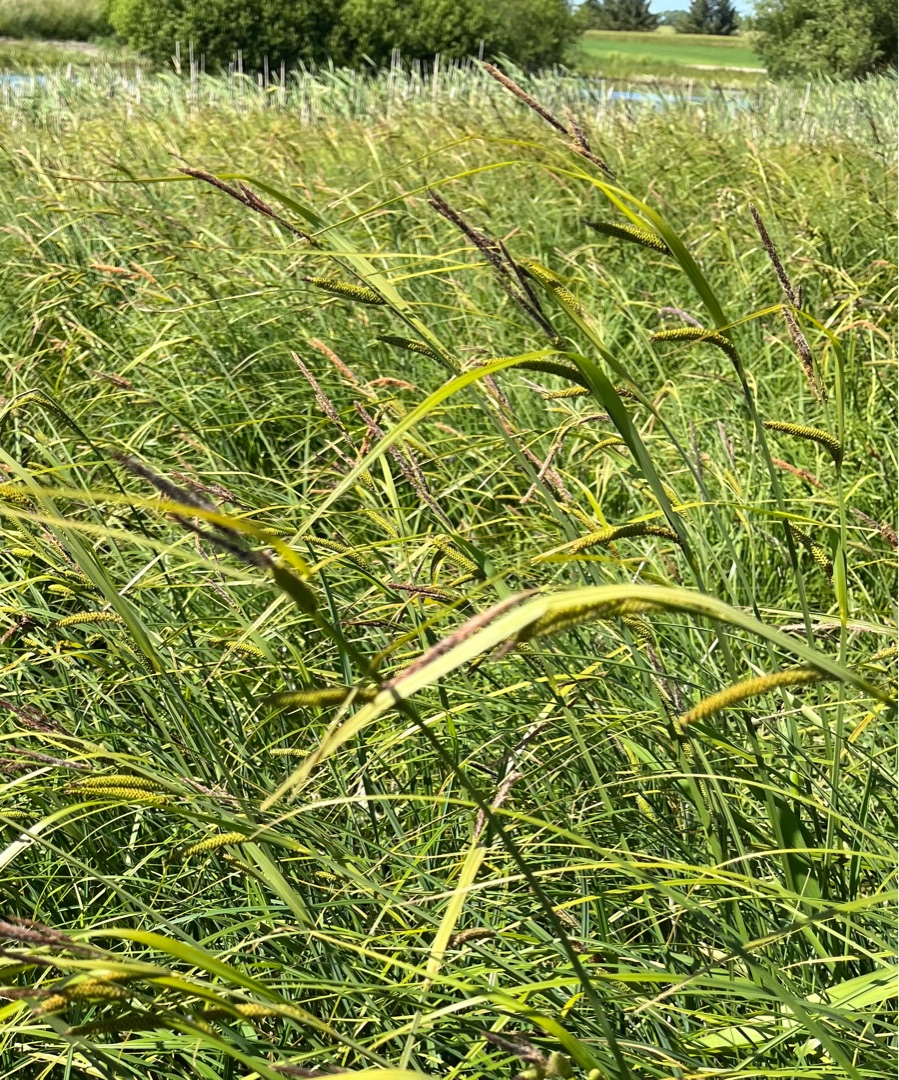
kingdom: Plantae
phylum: Tracheophyta
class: Liliopsida
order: Poales
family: Cyperaceae
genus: Carex
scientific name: Carex acuta
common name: Nikkende star
